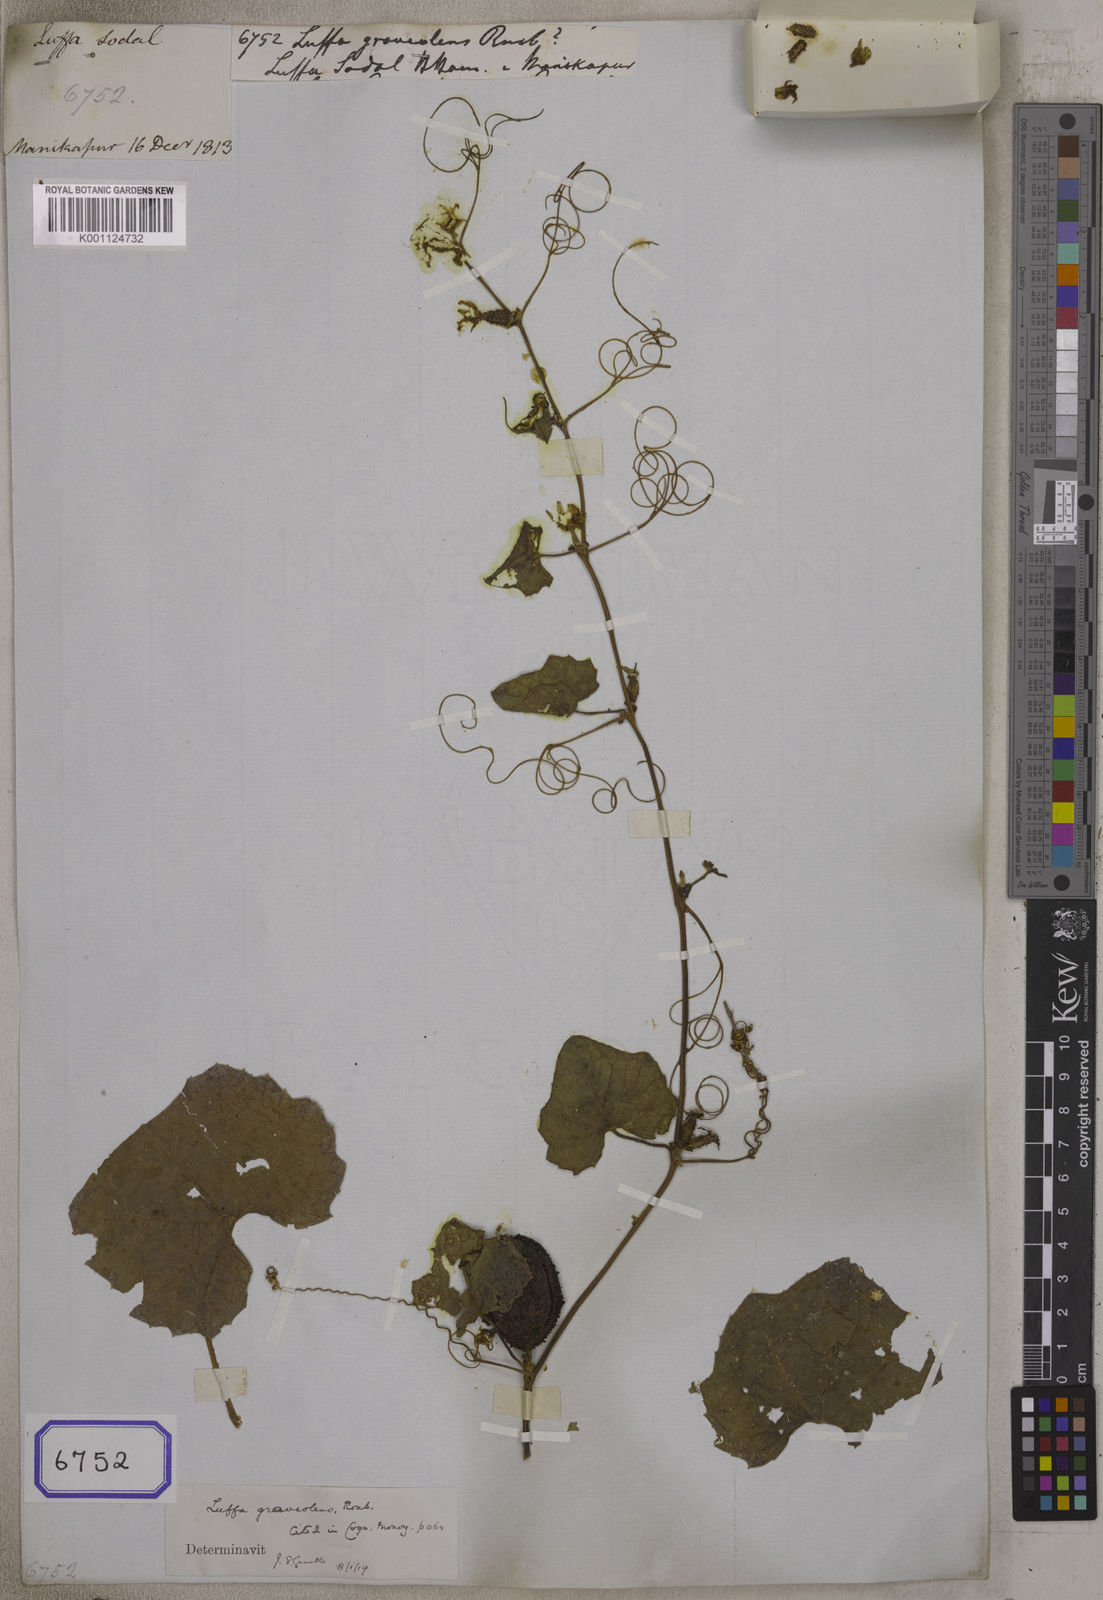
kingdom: Plantae
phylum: Tracheophyta
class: Magnoliopsida
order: Cucurbitales
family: Cucurbitaceae
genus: Luffa
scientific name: Luffa graveolens
